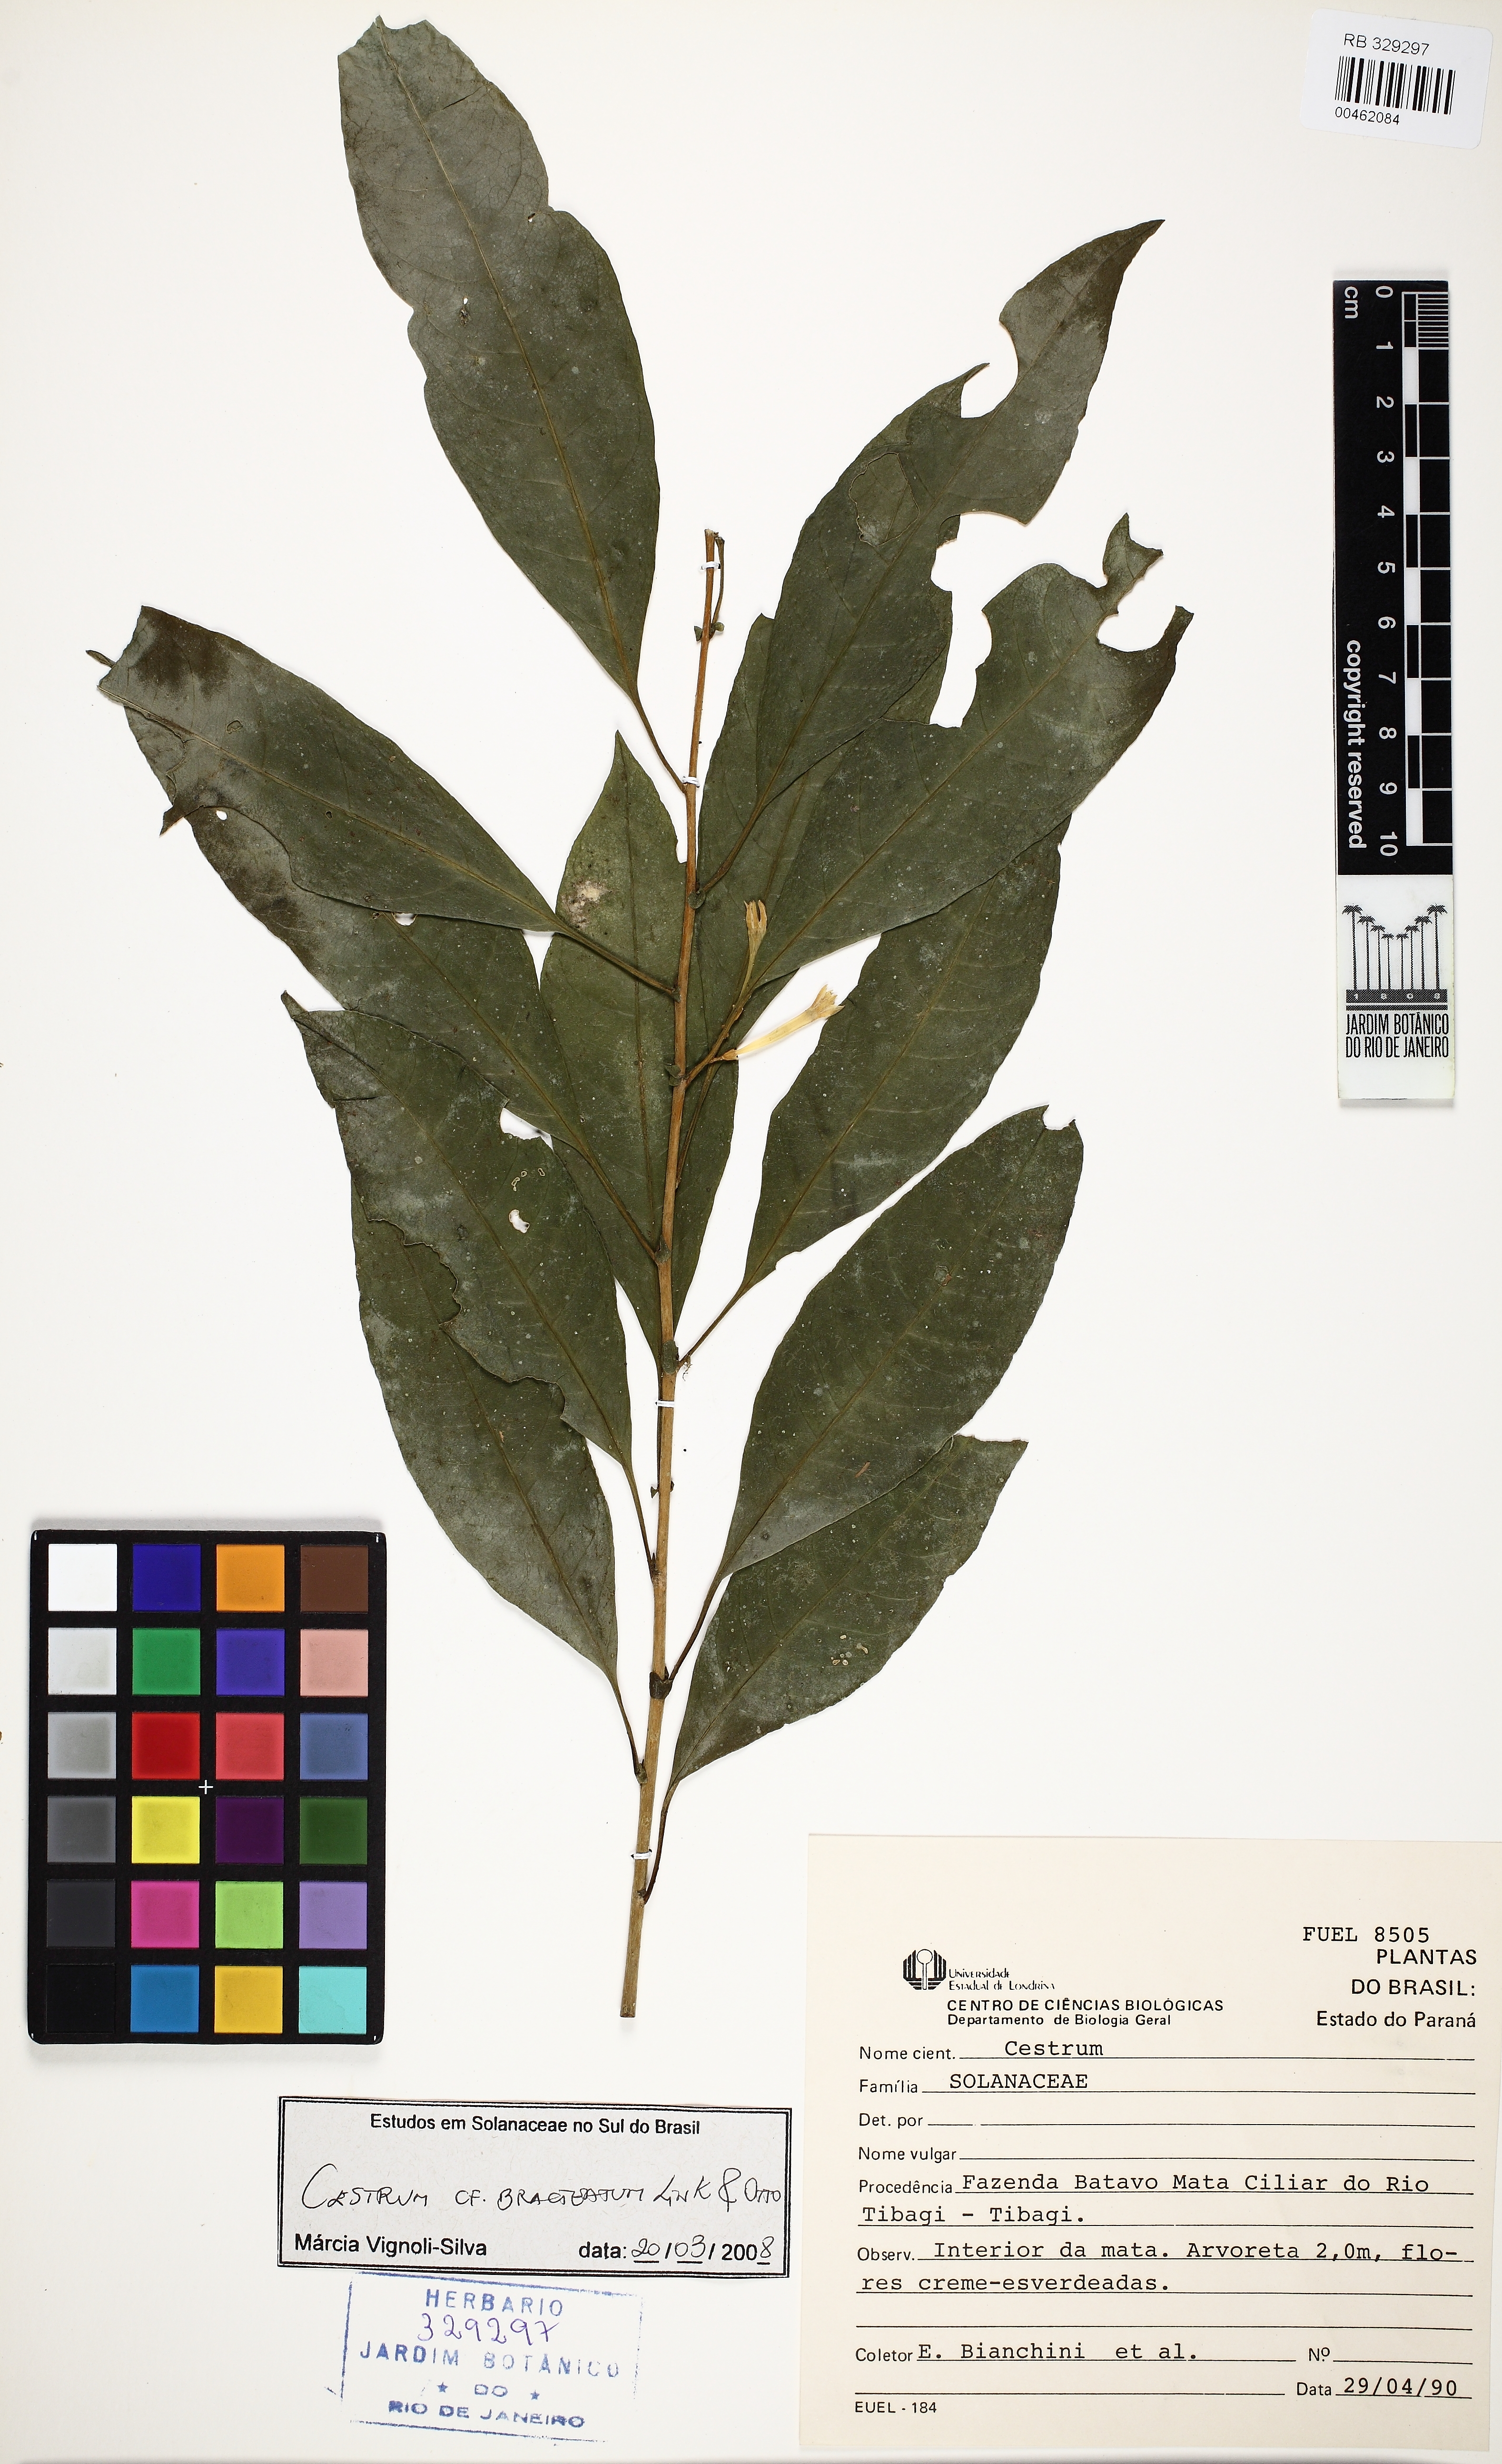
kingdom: Plantae
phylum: Tracheophyta
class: Magnoliopsida
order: Solanales
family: Solanaceae
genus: Cestrum
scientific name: Cestrum bracteatum
